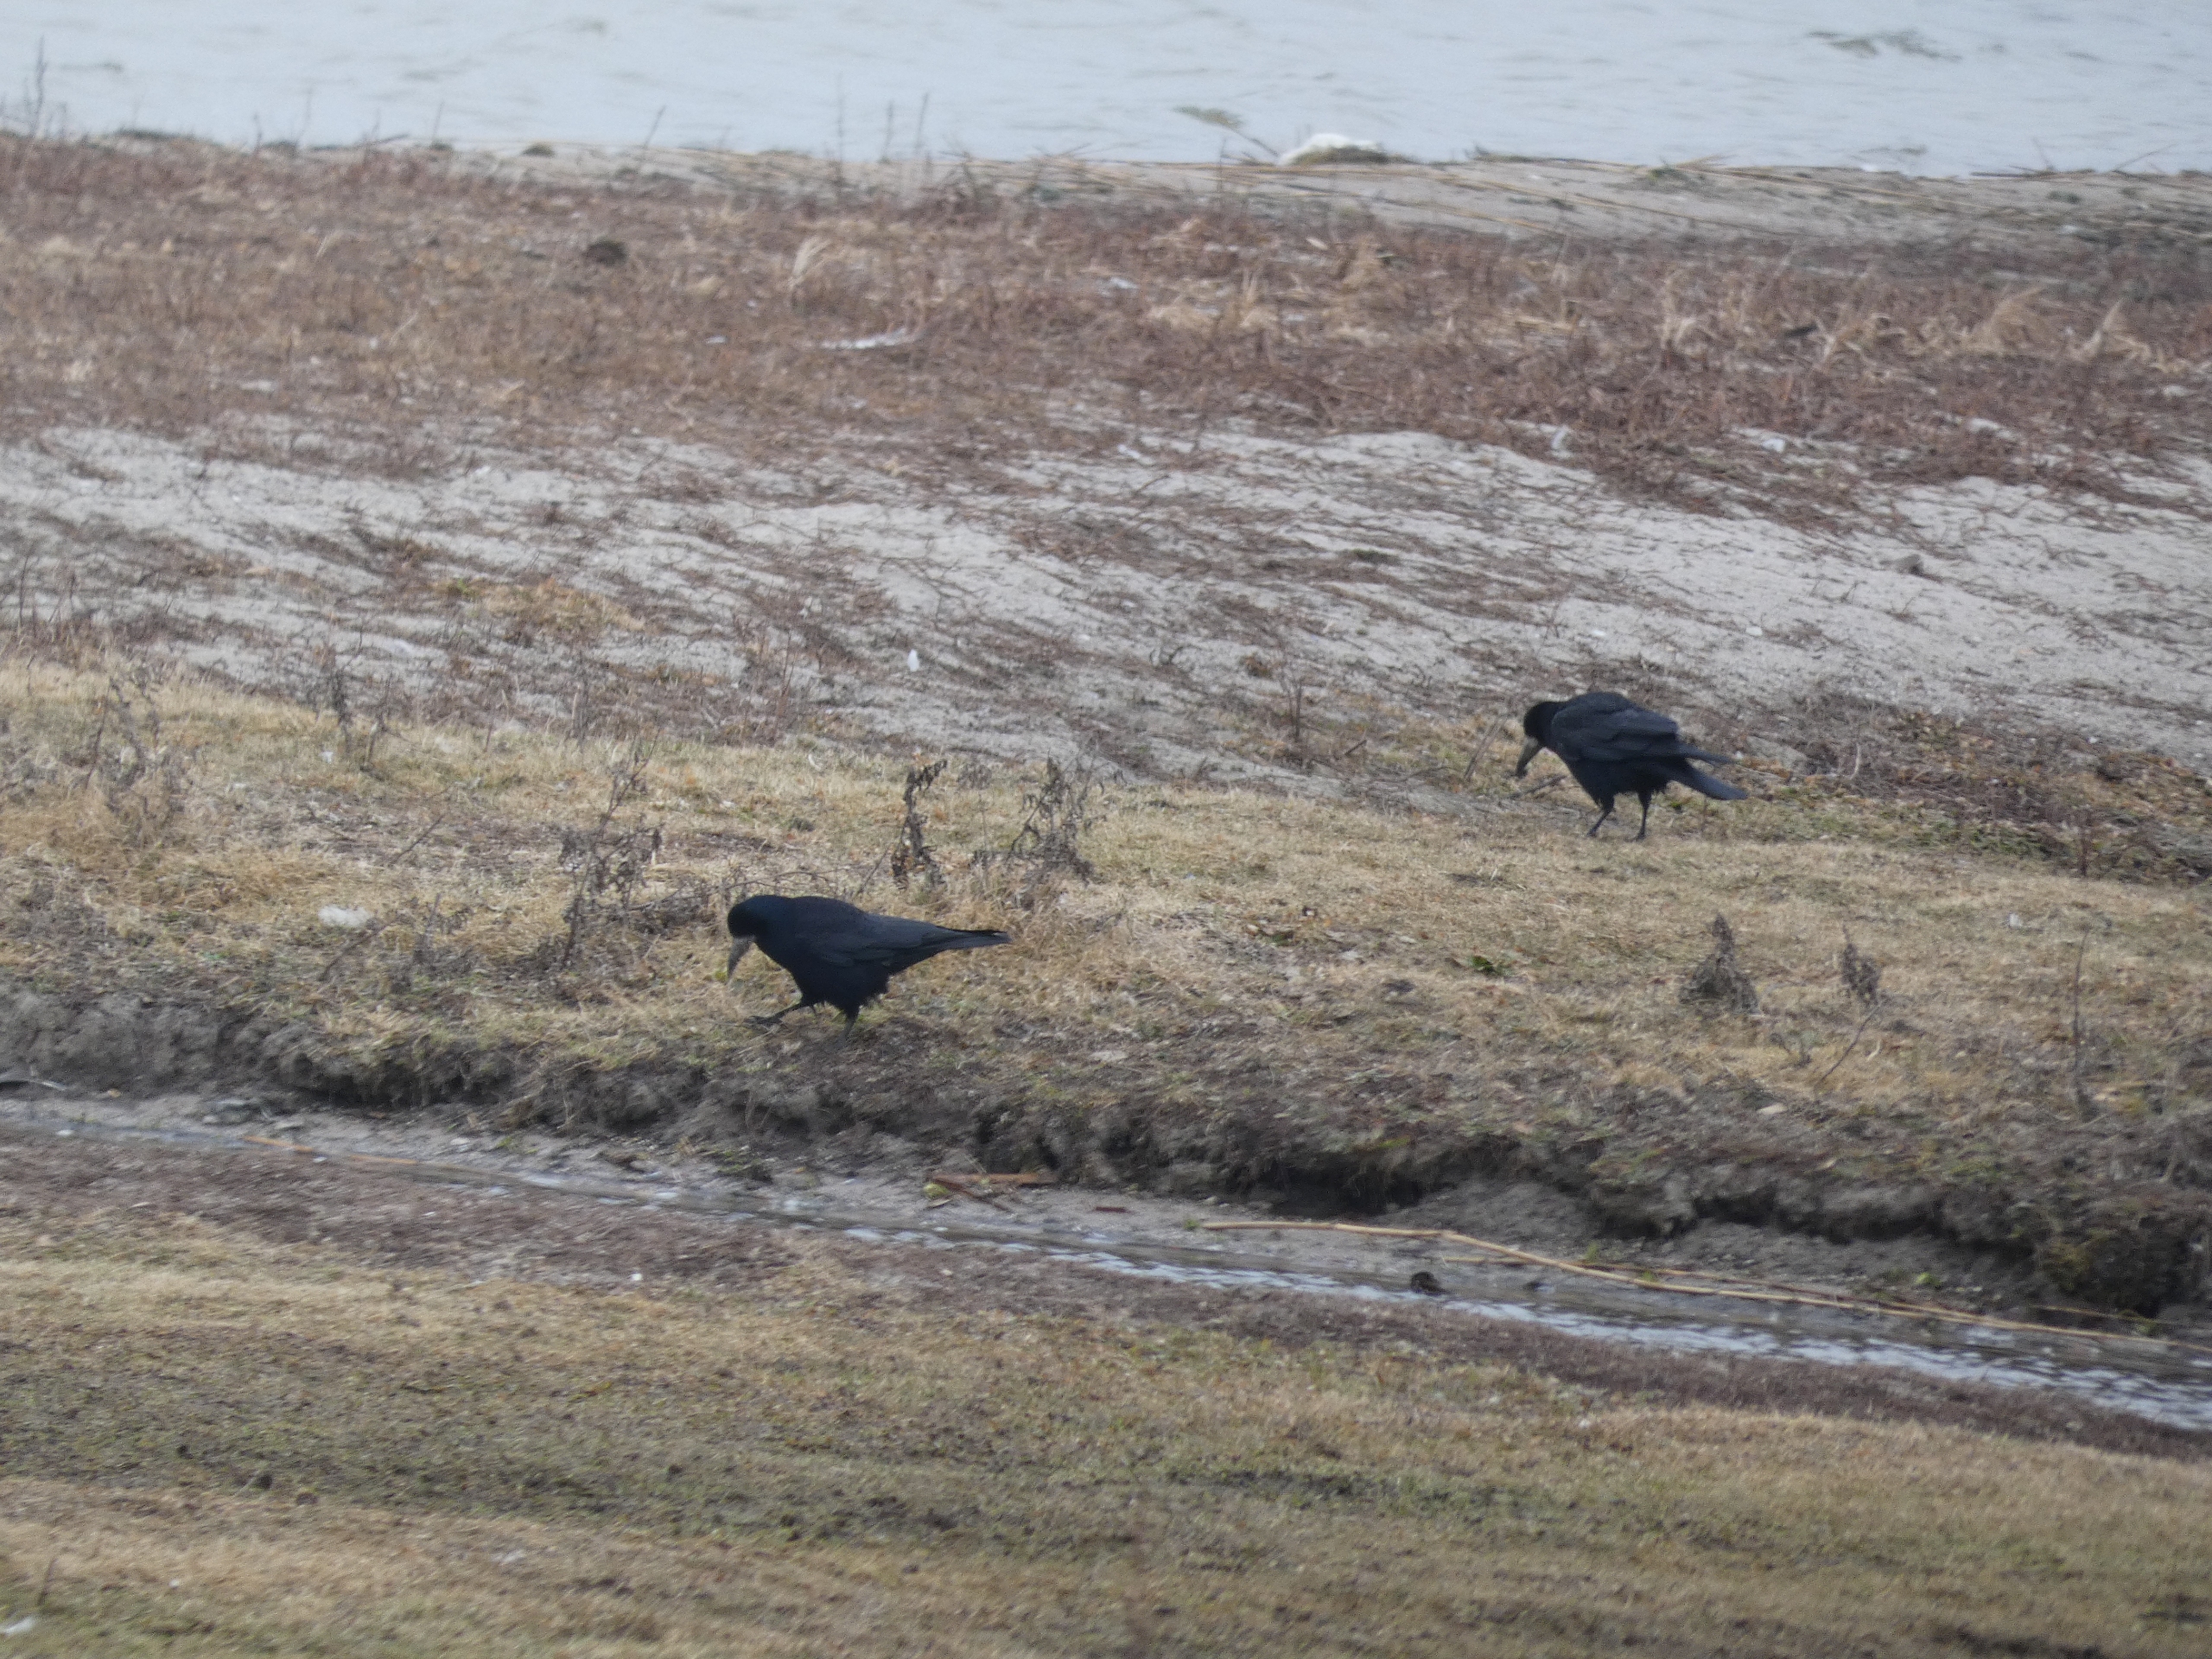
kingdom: Animalia
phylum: Chordata
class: Aves
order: Passeriformes
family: Corvidae
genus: Corvus
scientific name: Corvus frugilegus
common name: Råge
